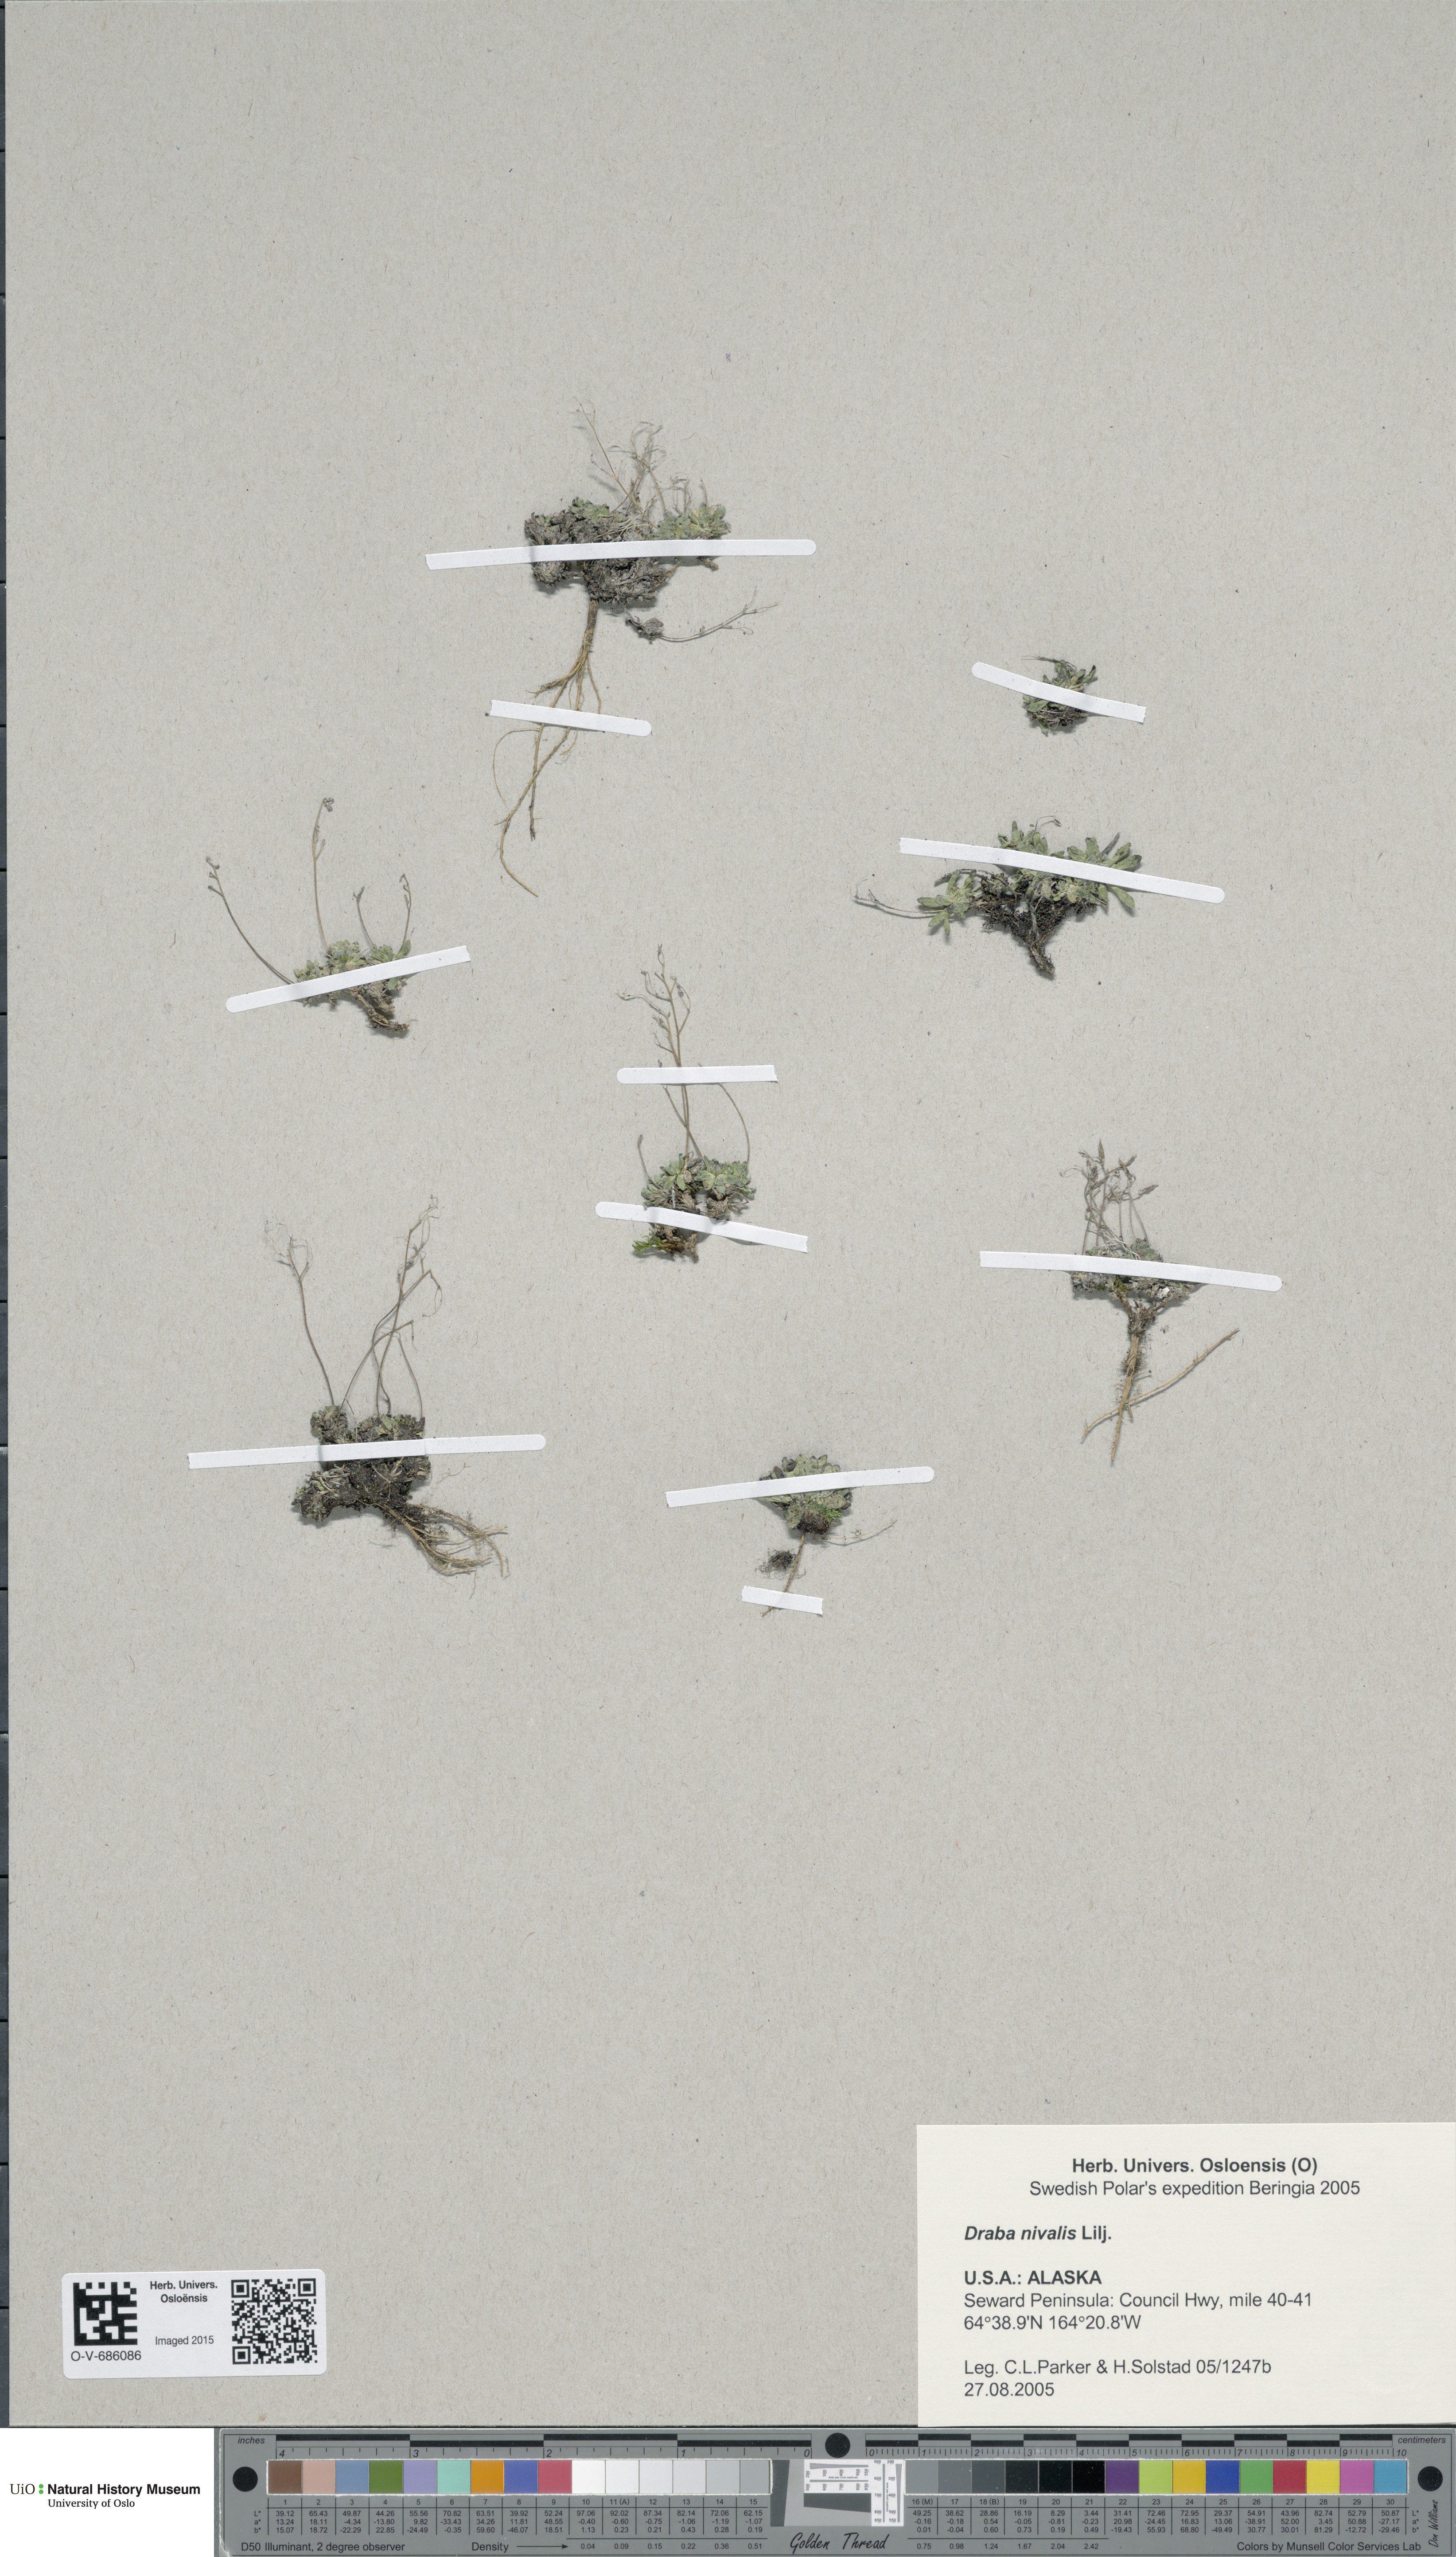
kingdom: Plantae
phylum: Tracheophyta
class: Magnoliopsida
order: Brassicales
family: Brassicaceae
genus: Draba
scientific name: Draba nivalis
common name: Snow draba
